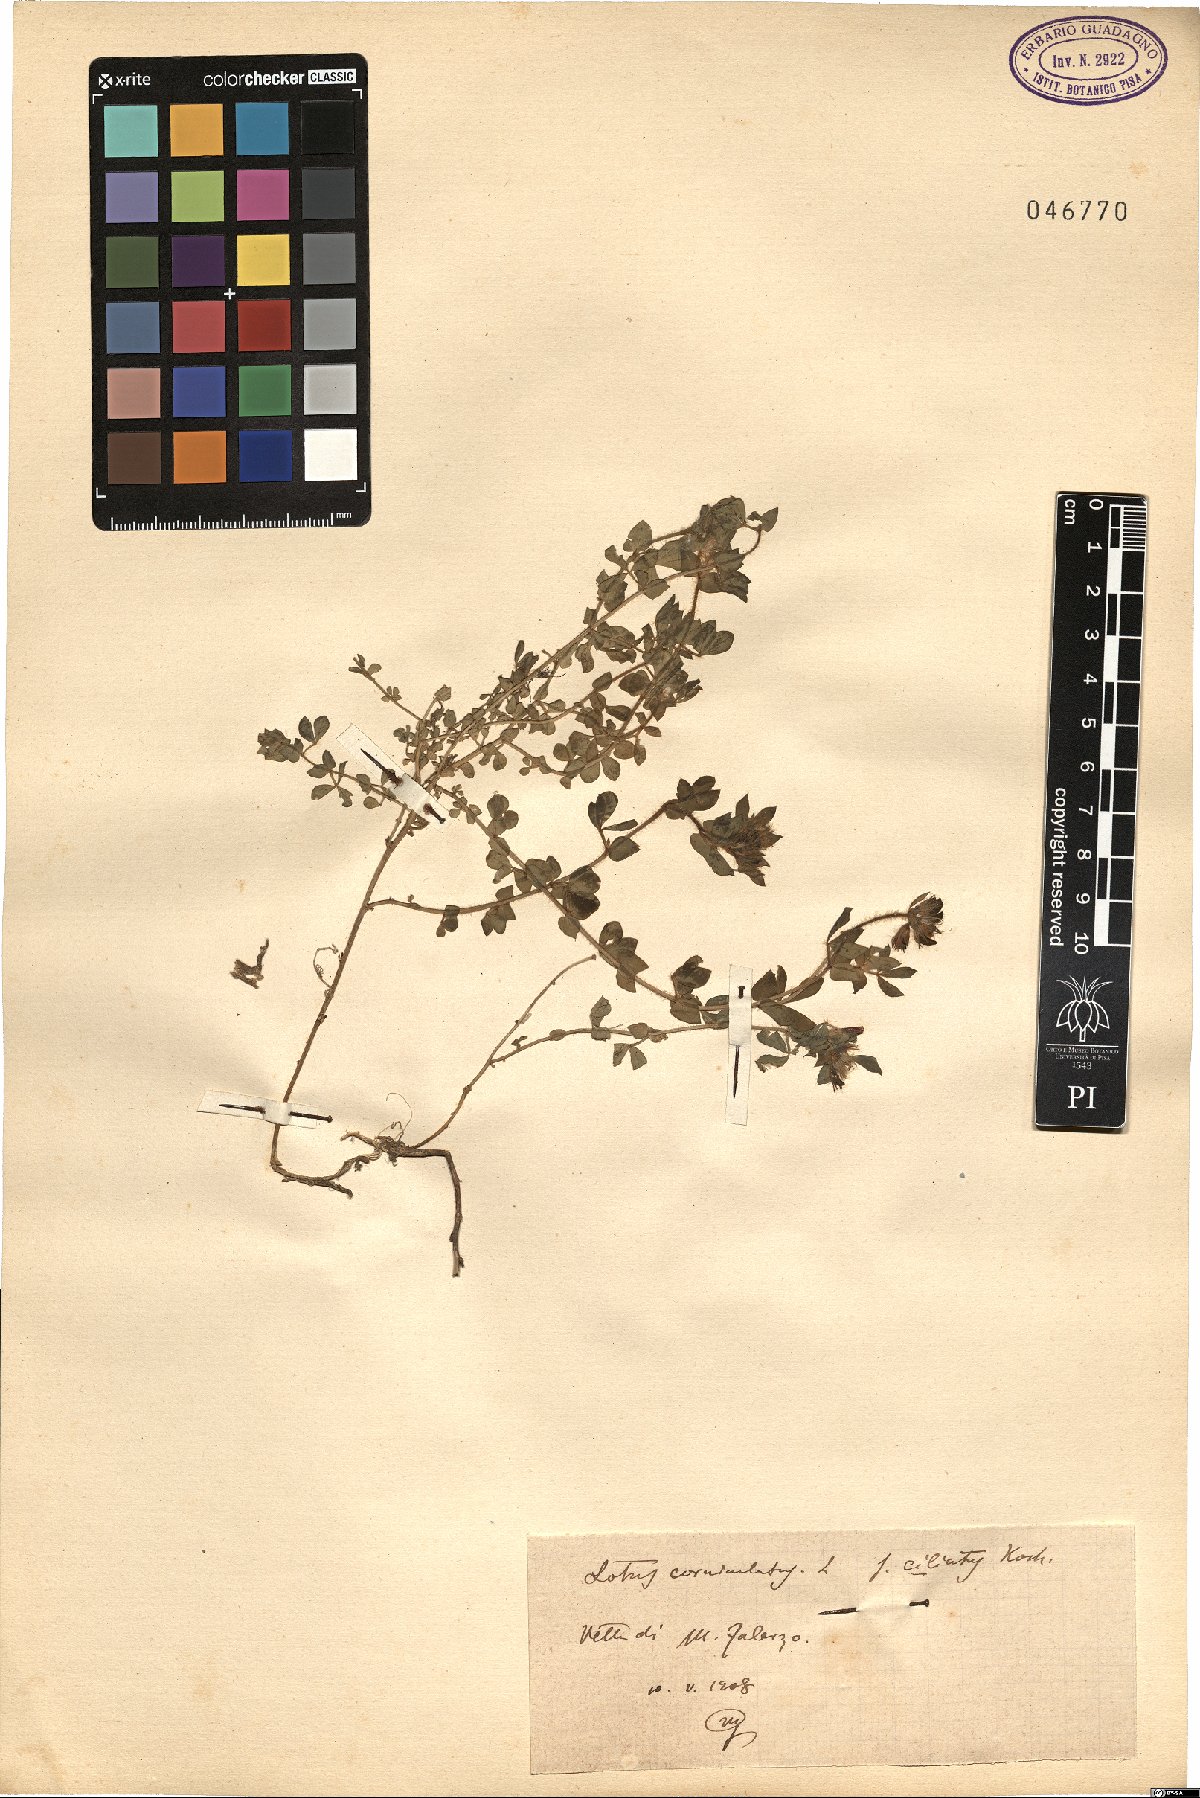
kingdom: Plantae
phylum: Tracheophyta
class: Magnoliopsida
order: Fabales
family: Fabaceae
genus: Lotus
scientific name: Lotus angustissimus
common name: Slender bird's-foot trefoil
